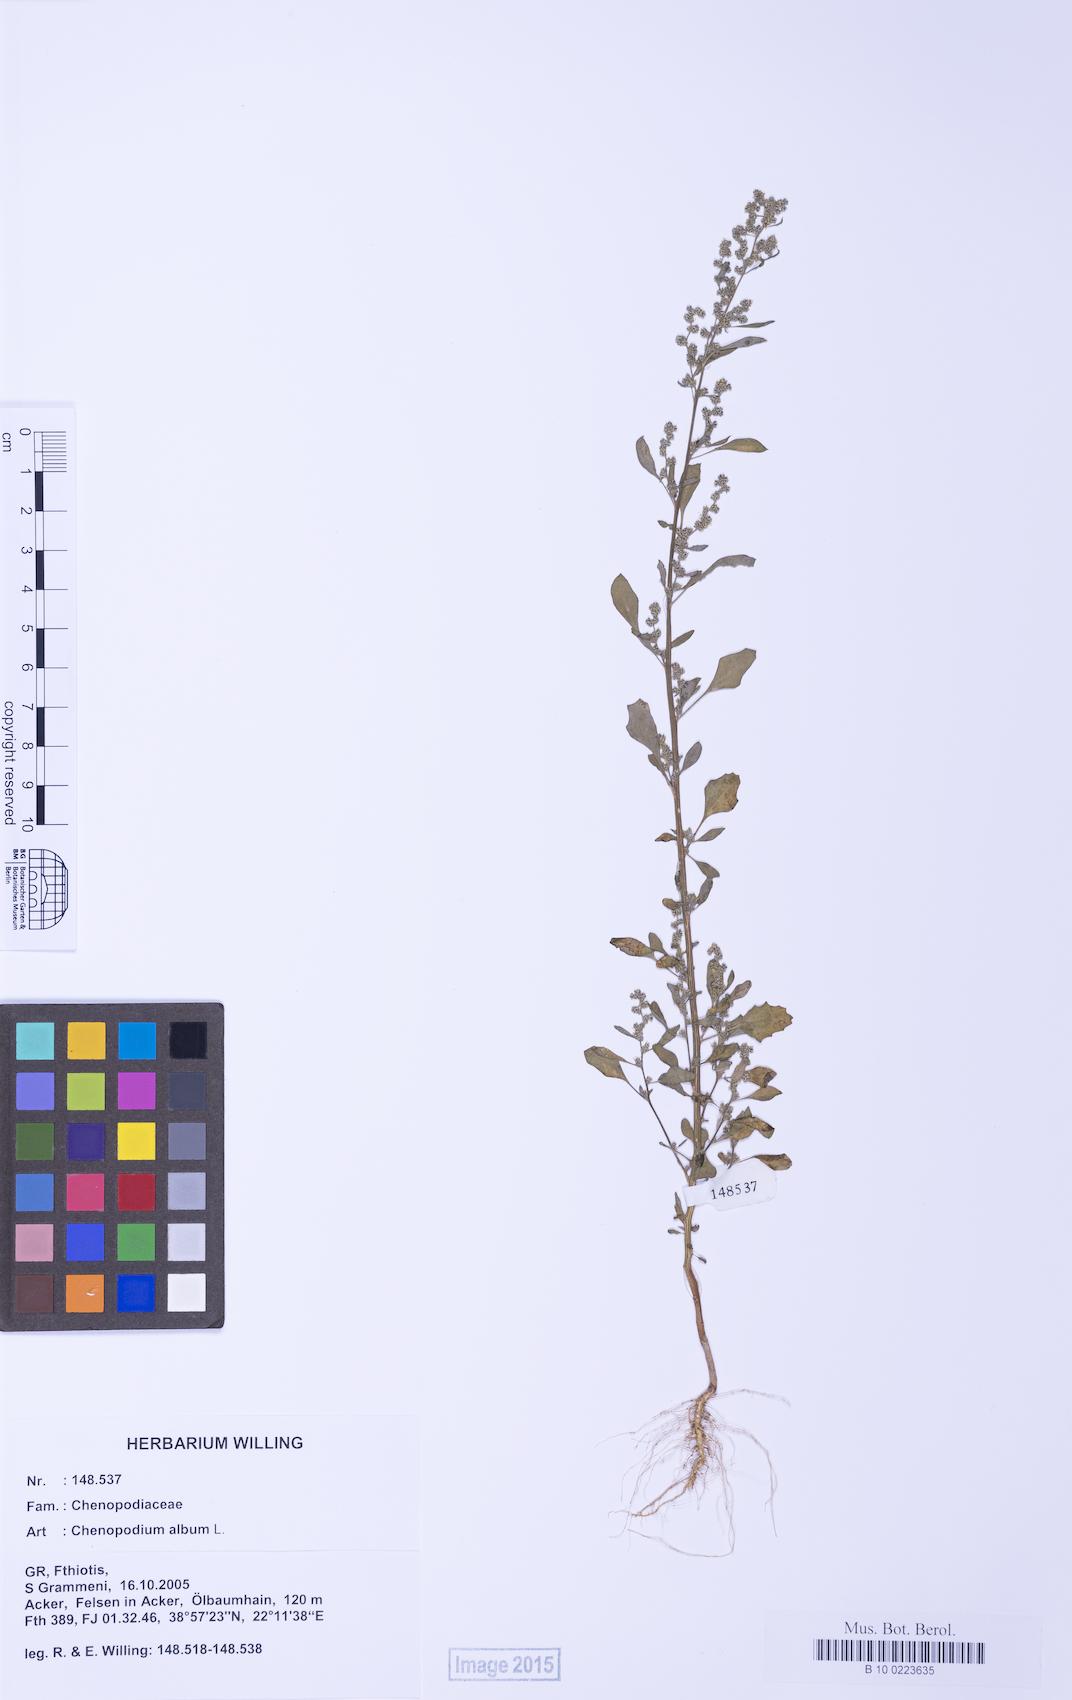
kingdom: Plantae
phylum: Tracheophyta
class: Magnoliopsida
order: Caryophyllales
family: Amaranthaceae
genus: Chenopodium
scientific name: Chenopodium striatiforme
